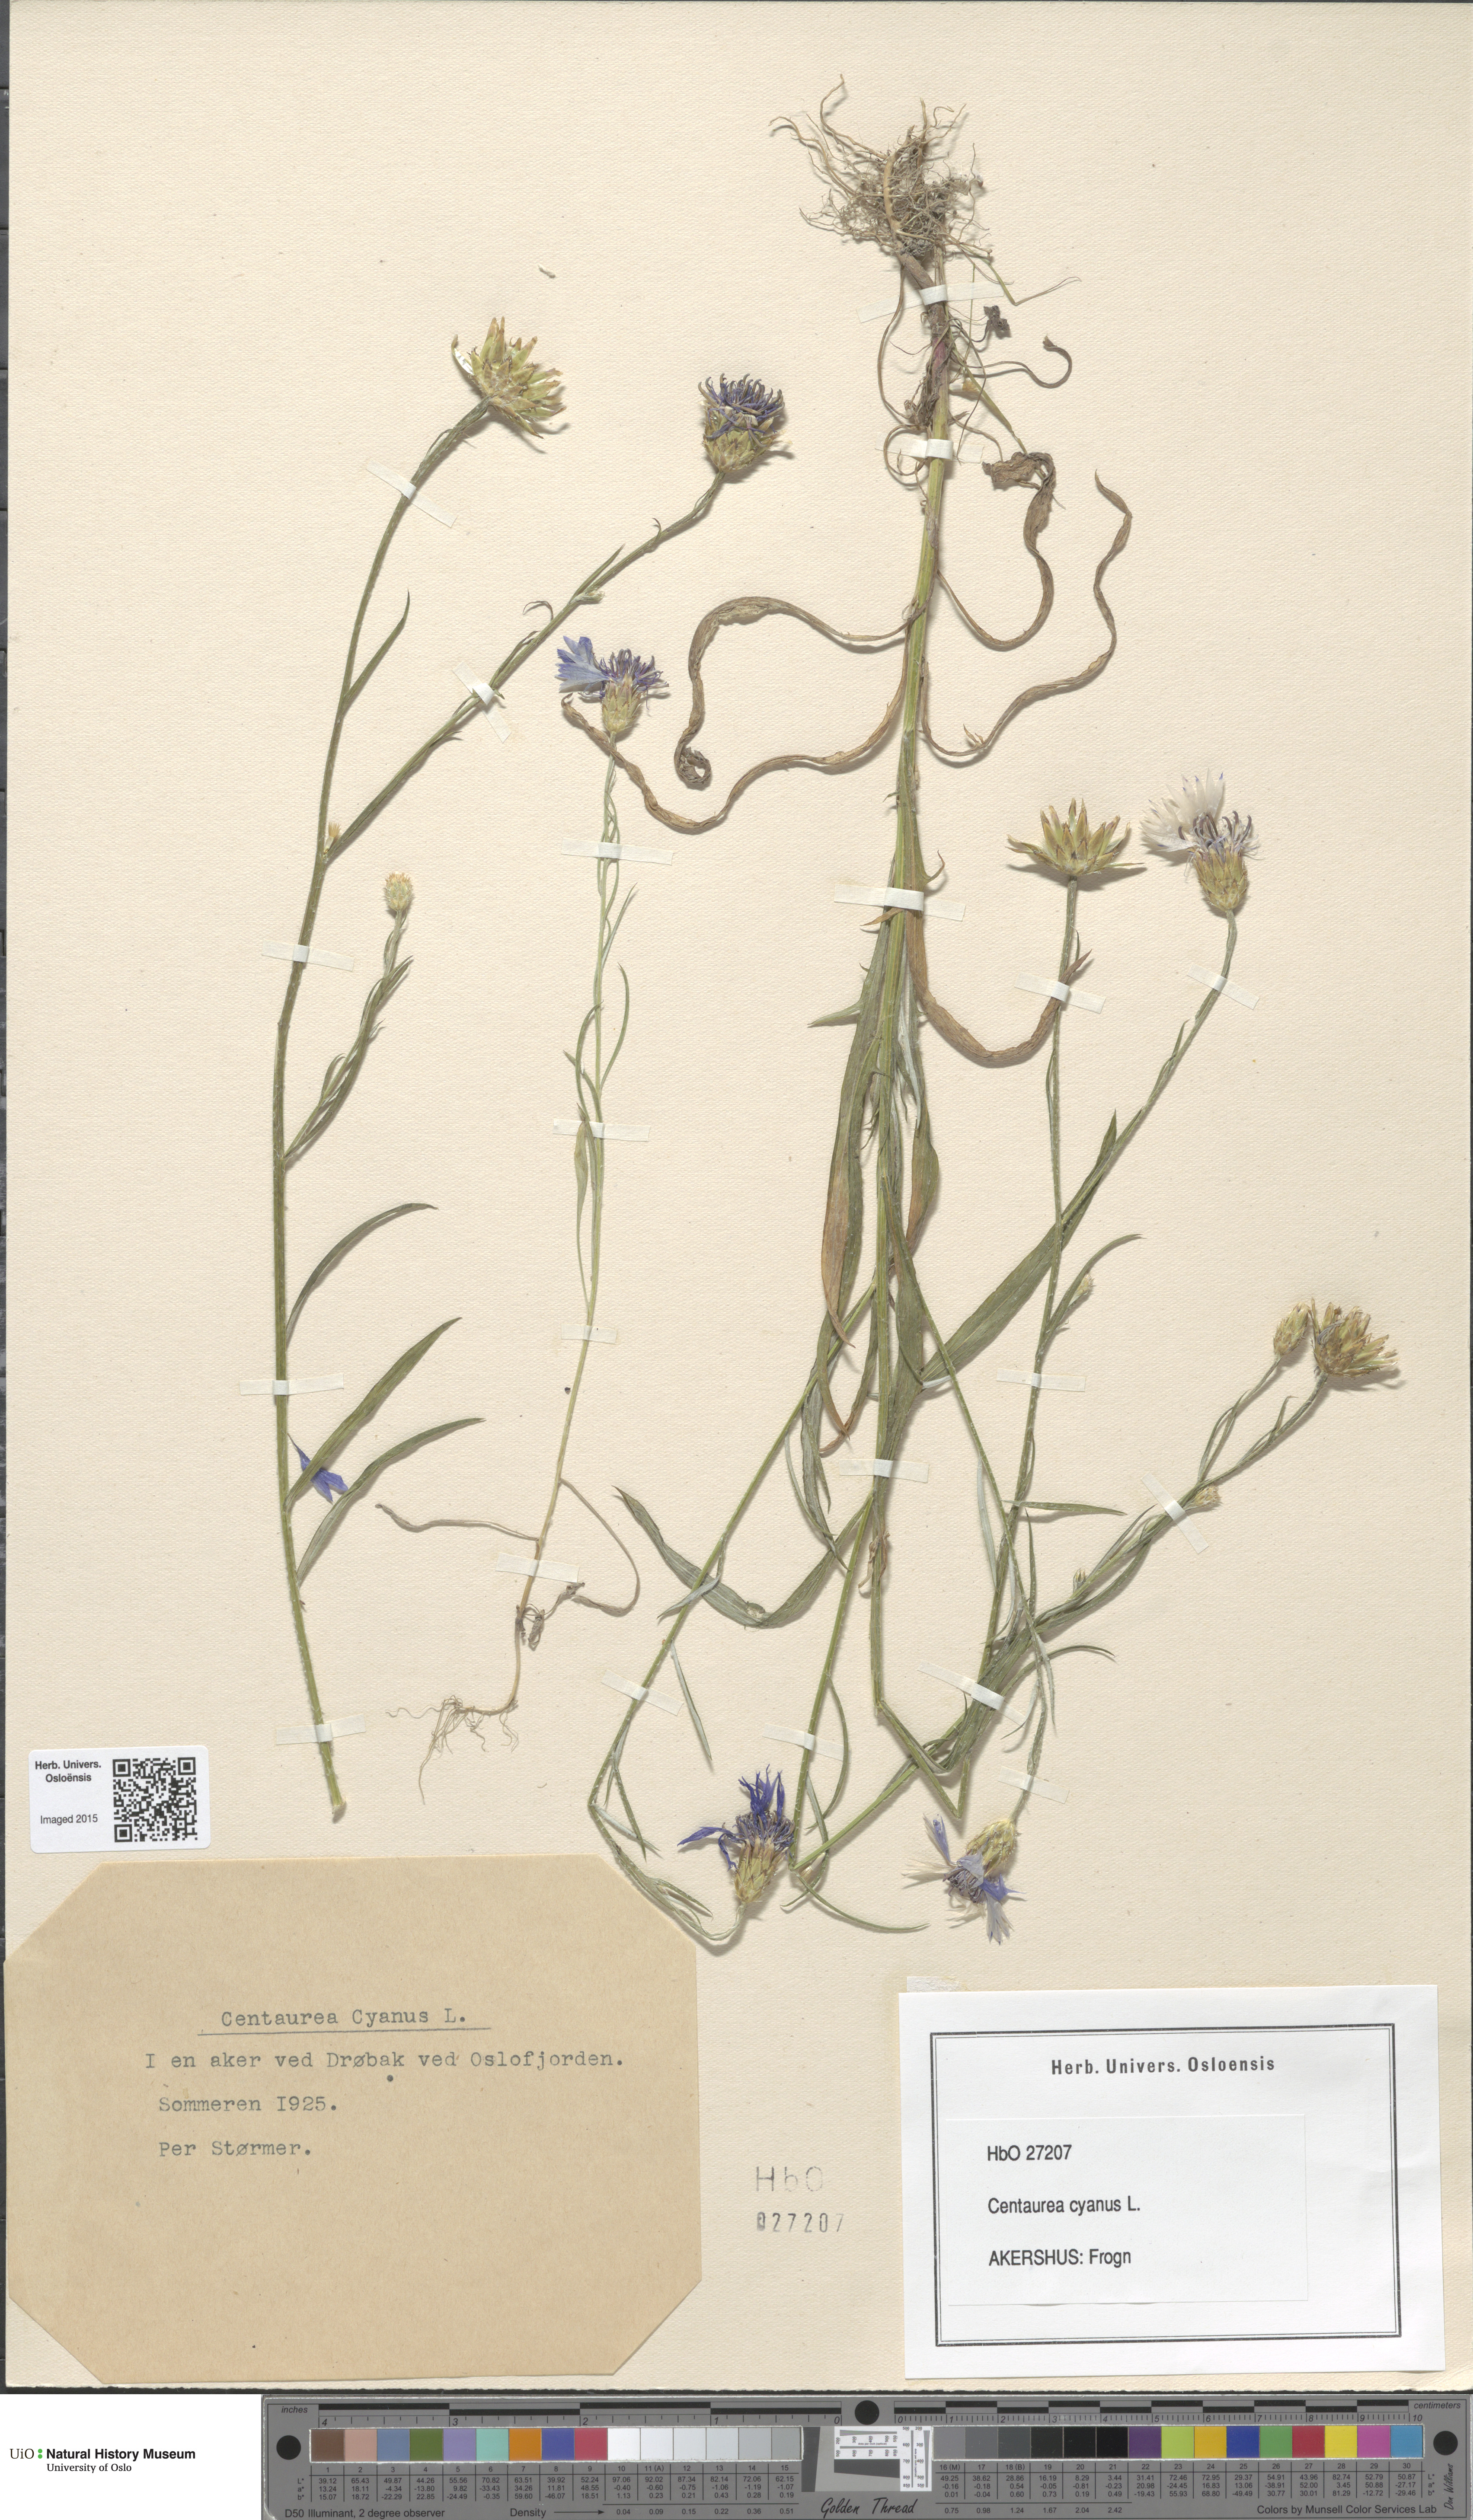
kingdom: Plantae
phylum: Tracheophyta
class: Magnoliopsida
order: Asterales
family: Asteraceae
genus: Centaurea
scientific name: Centaurea cyanus
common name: Cornflower
